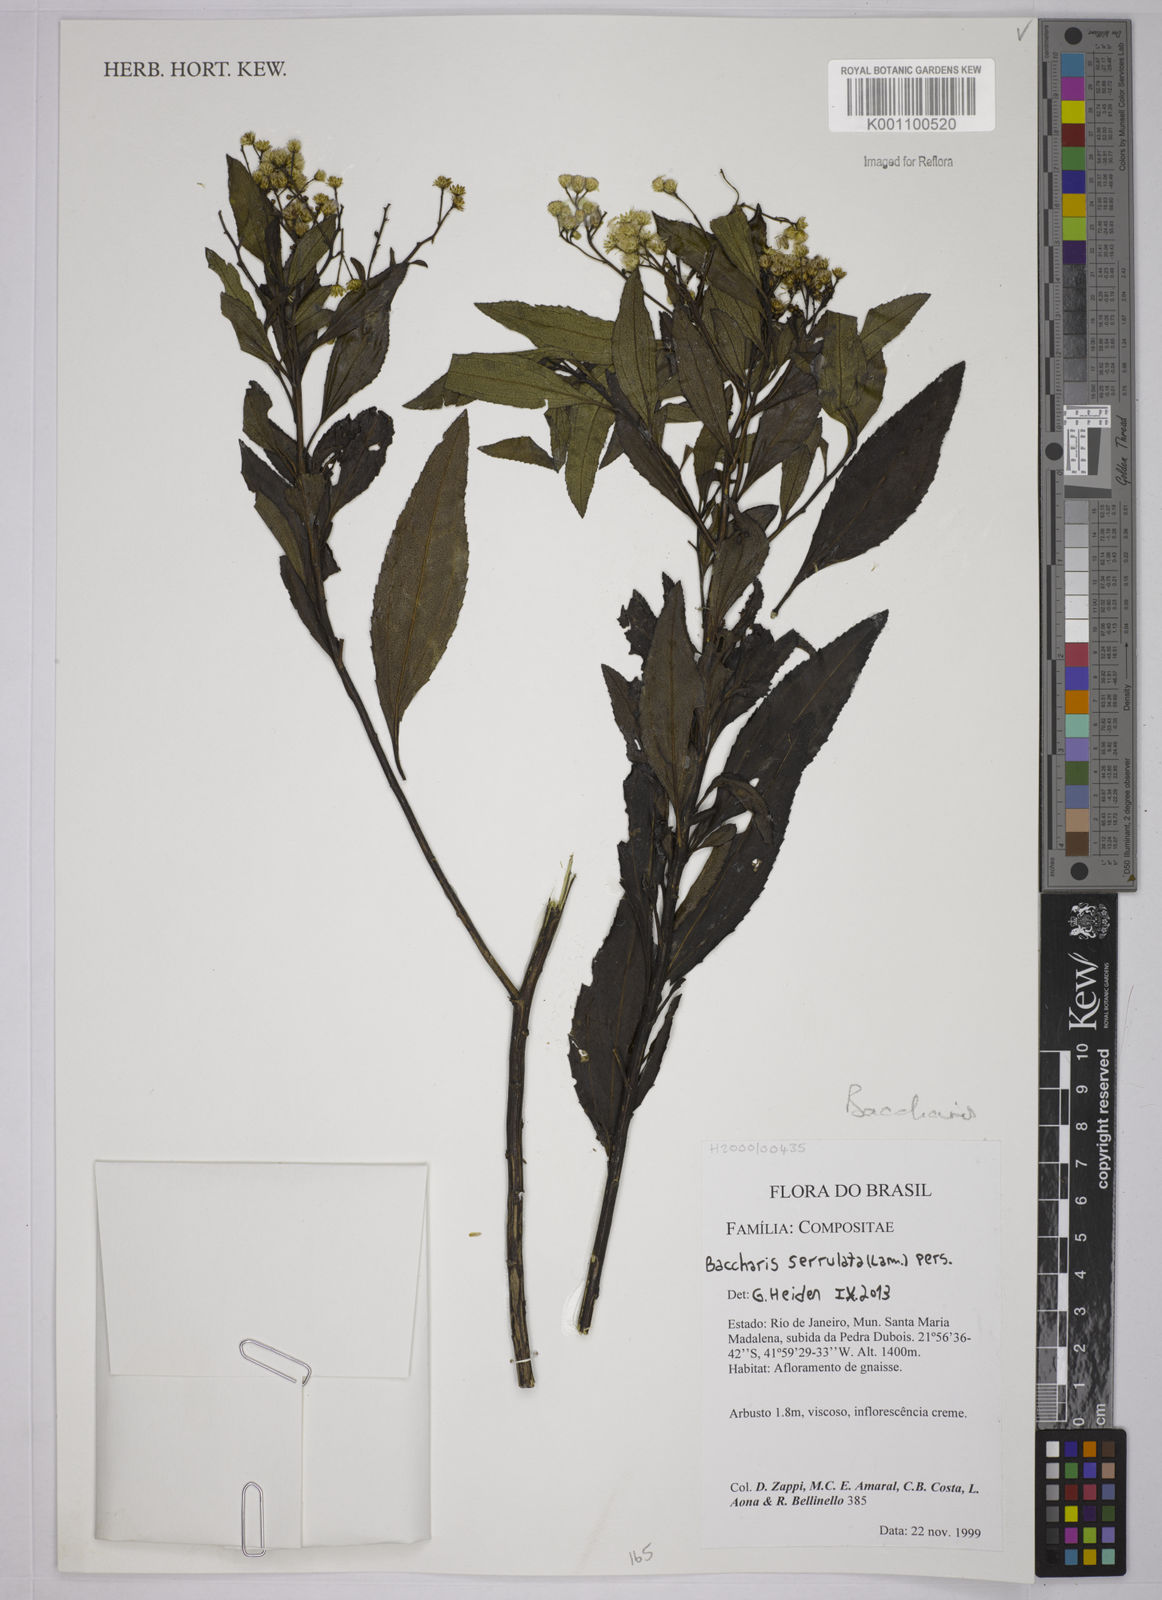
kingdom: Plantae
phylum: Tracheophyta
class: Magnoliopsida
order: Asterales
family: Asteraceae
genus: Baccharis
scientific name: Baccharis serrulata
